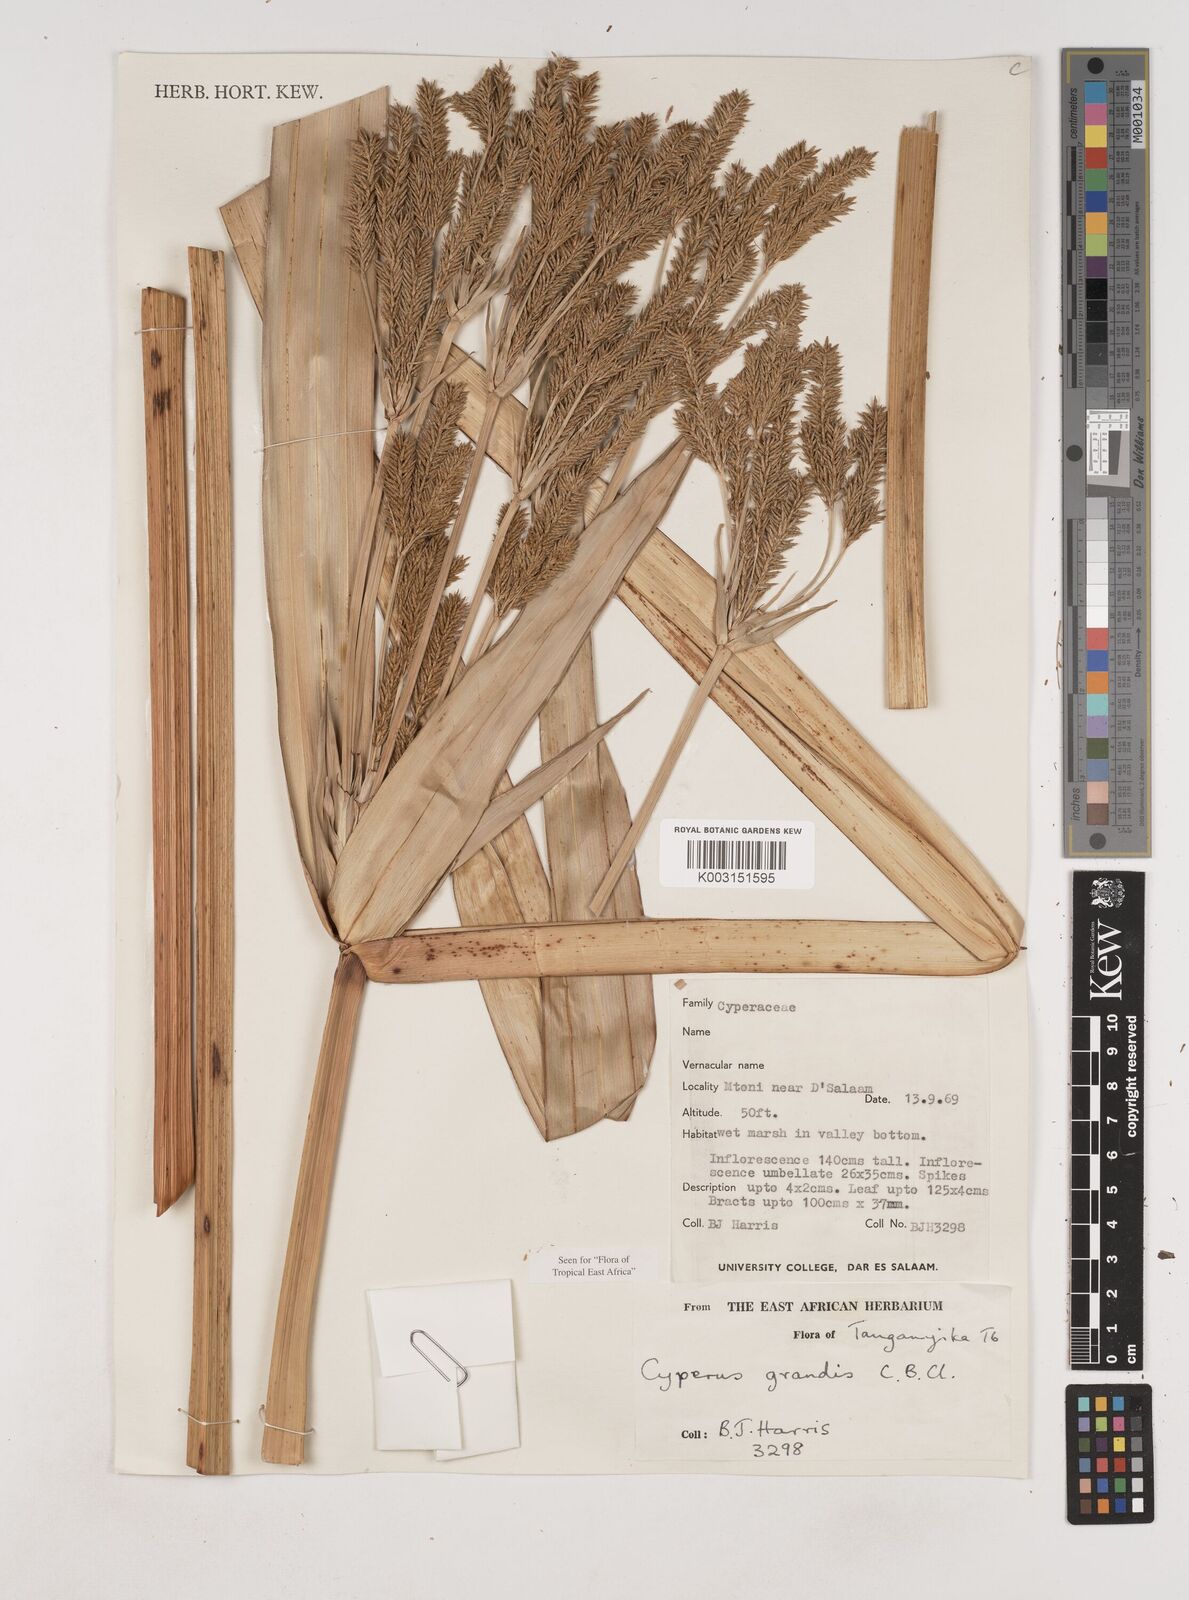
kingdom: Plantae
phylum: Tracheophyta
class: Liliopsida
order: Poales
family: Cyperaceae
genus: Cyperus
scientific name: Cyperus grandis
